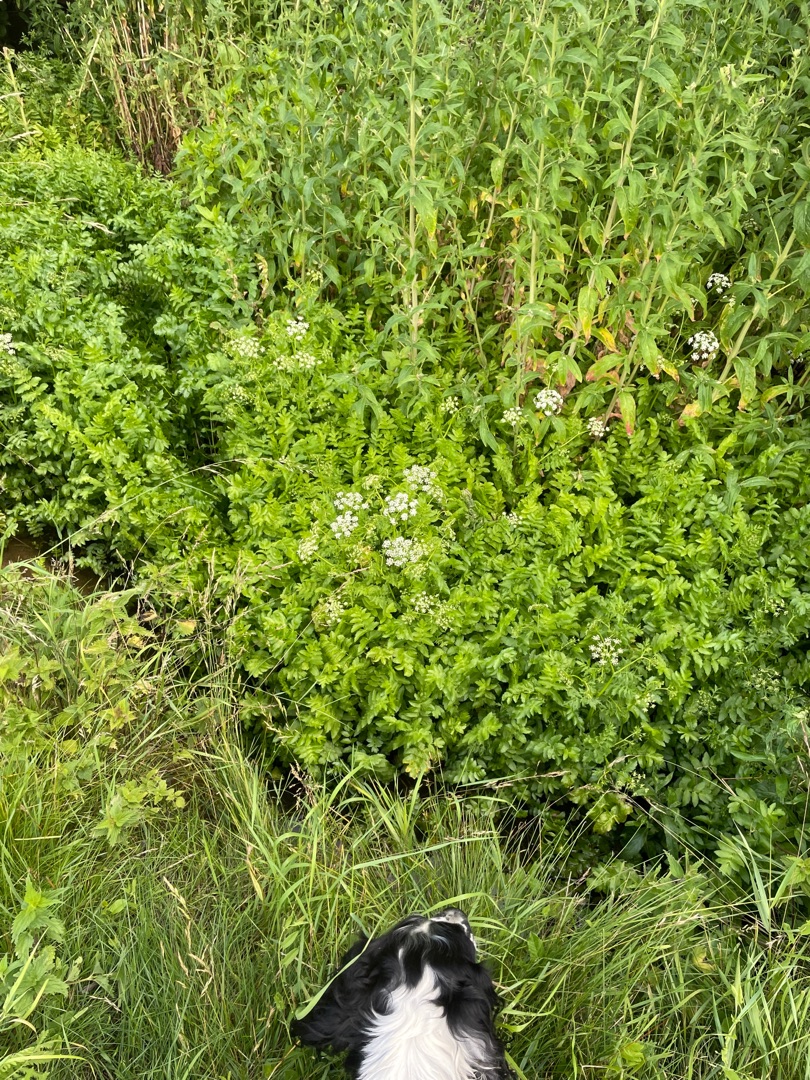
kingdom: Plantae
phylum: Tracheophyta
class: Magnoliopsida
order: Apiales
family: Apiaceae
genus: Berula
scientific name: Berula erecta
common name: Sideskærm
